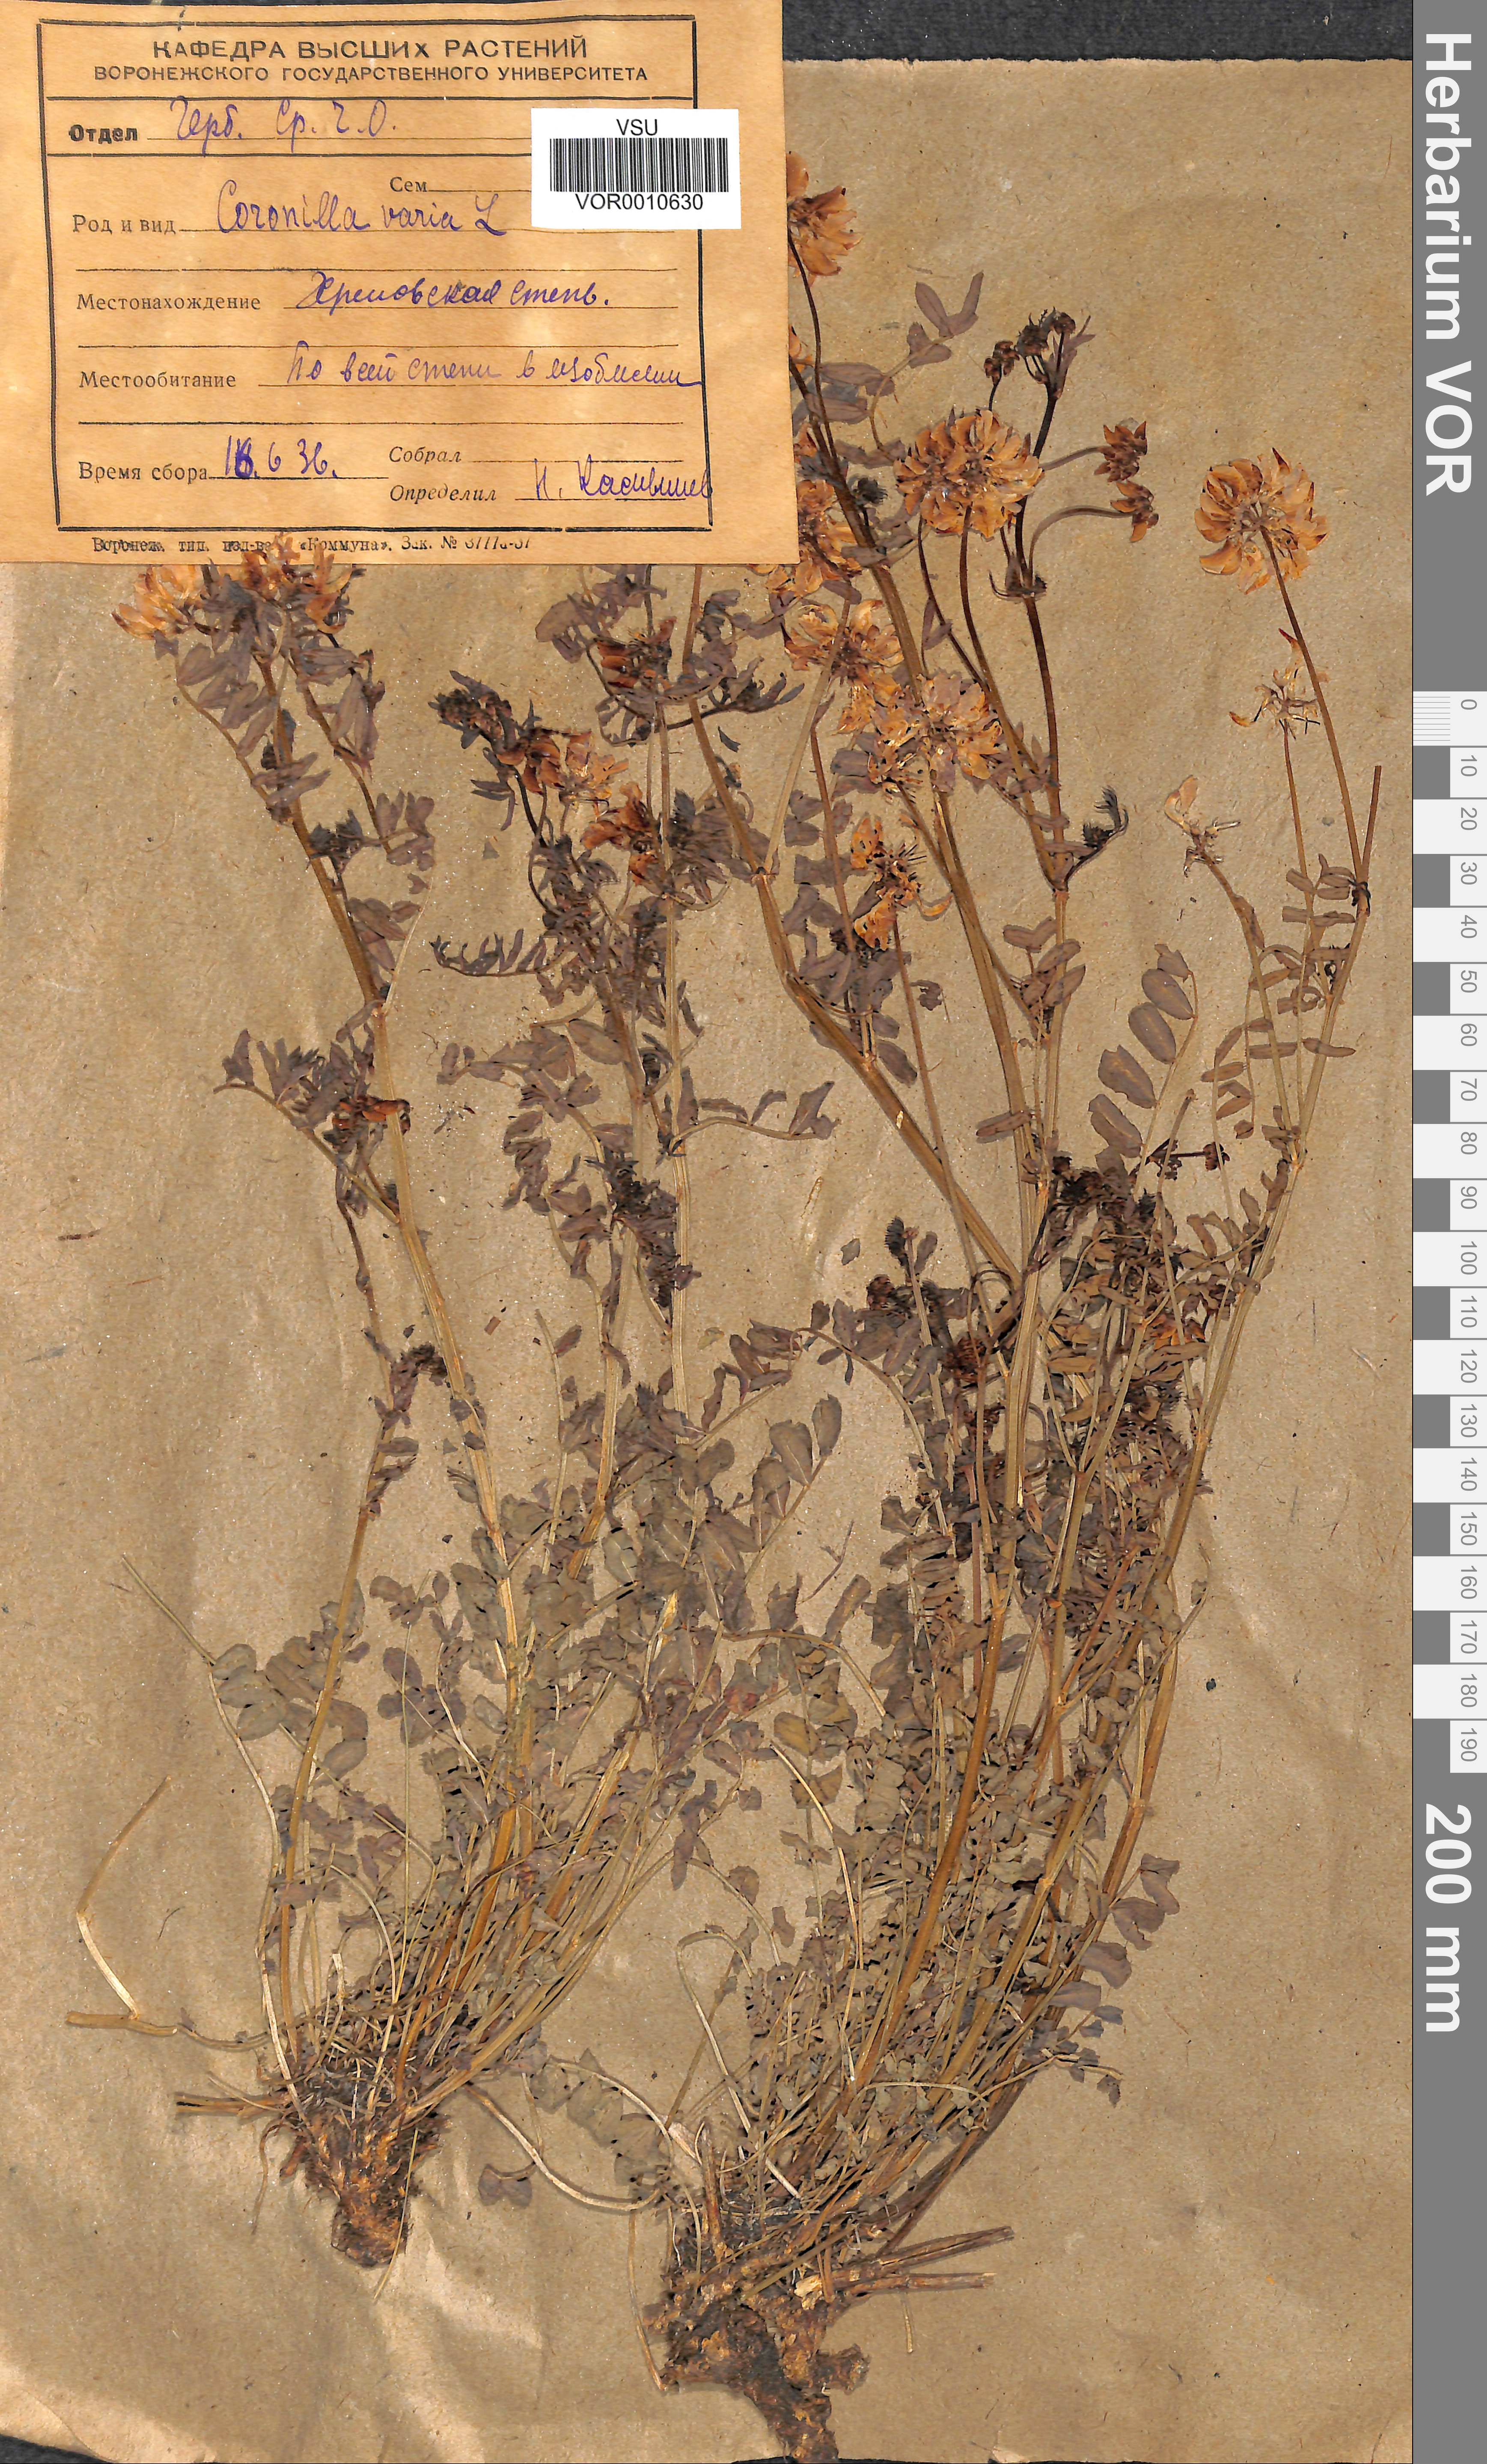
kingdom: Plantae
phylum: Tracheophyta
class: Magnoliopsida
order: Fabales
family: Fabaceae
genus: Coronilla
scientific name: Coronilla varia
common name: Crownvetch
